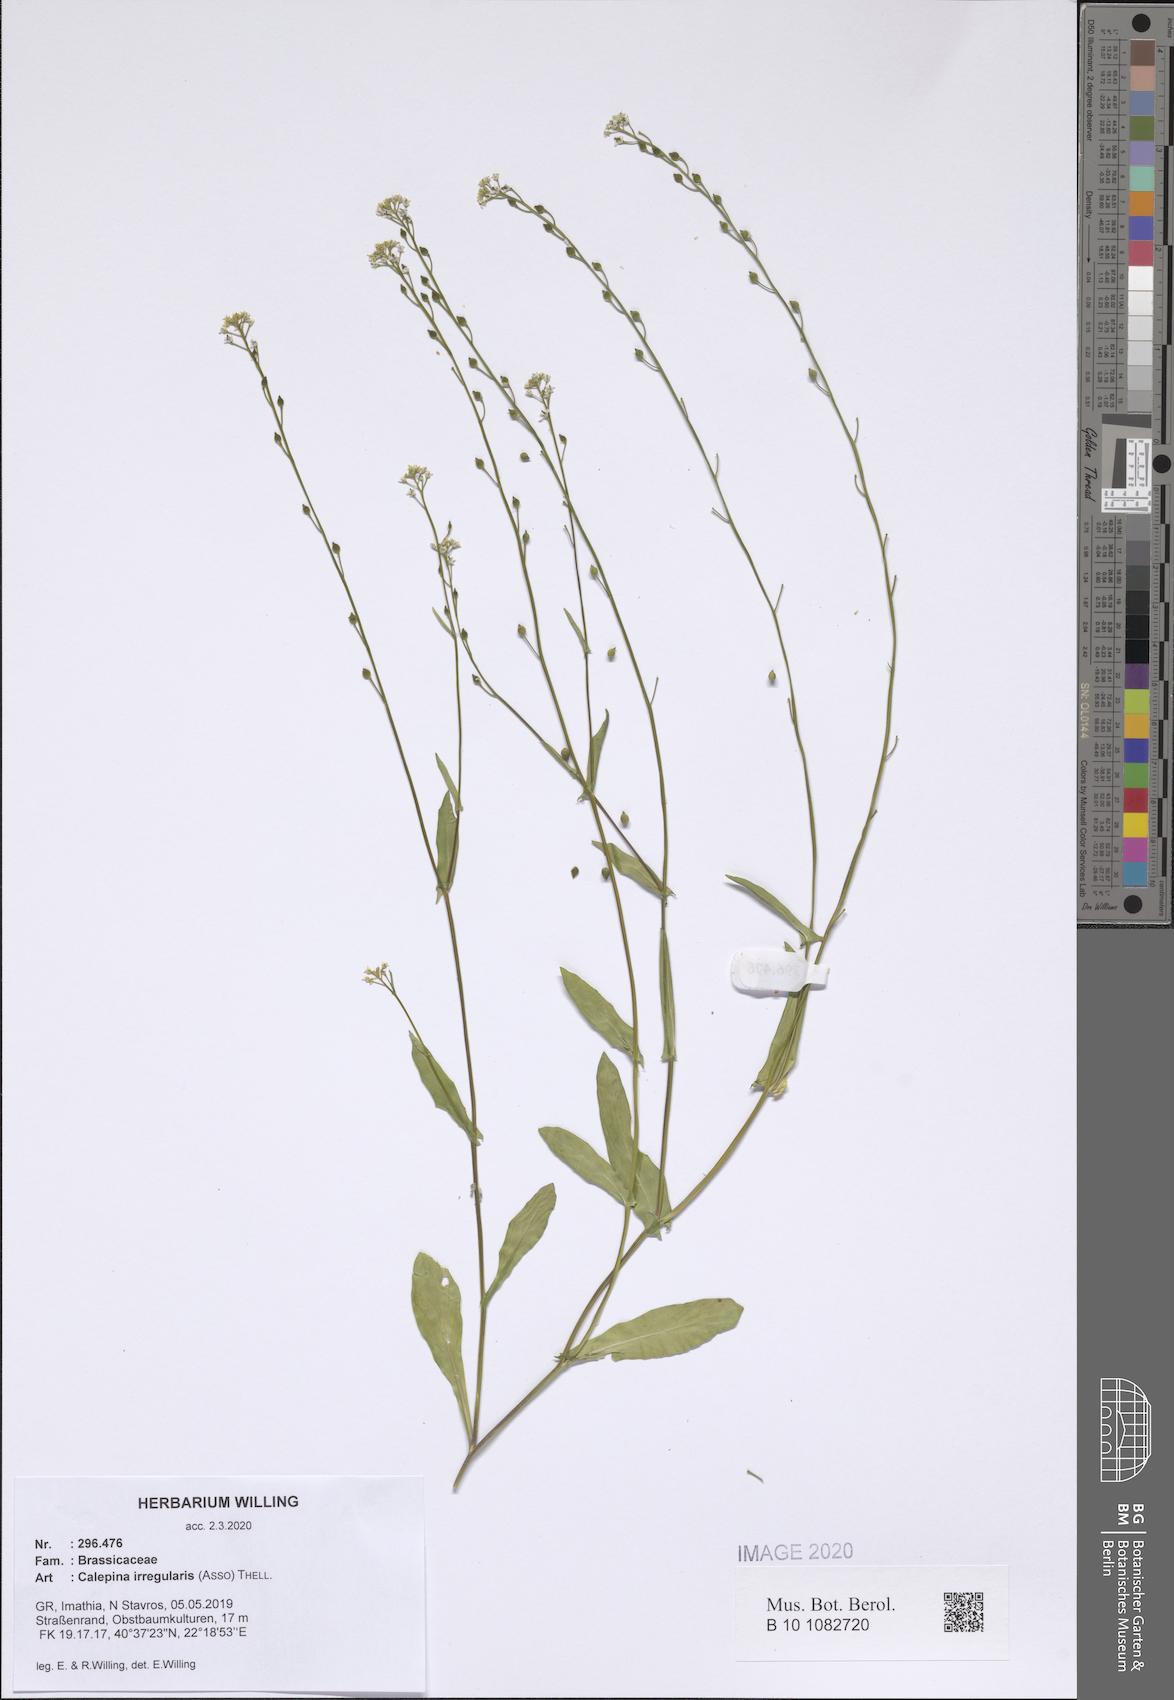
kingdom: Plantae
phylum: Tracheophyta
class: Magnoliopsida
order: Brassicales
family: Brassicaceae
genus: Calepina
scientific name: Calepina irregularis
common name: White ballmustard
